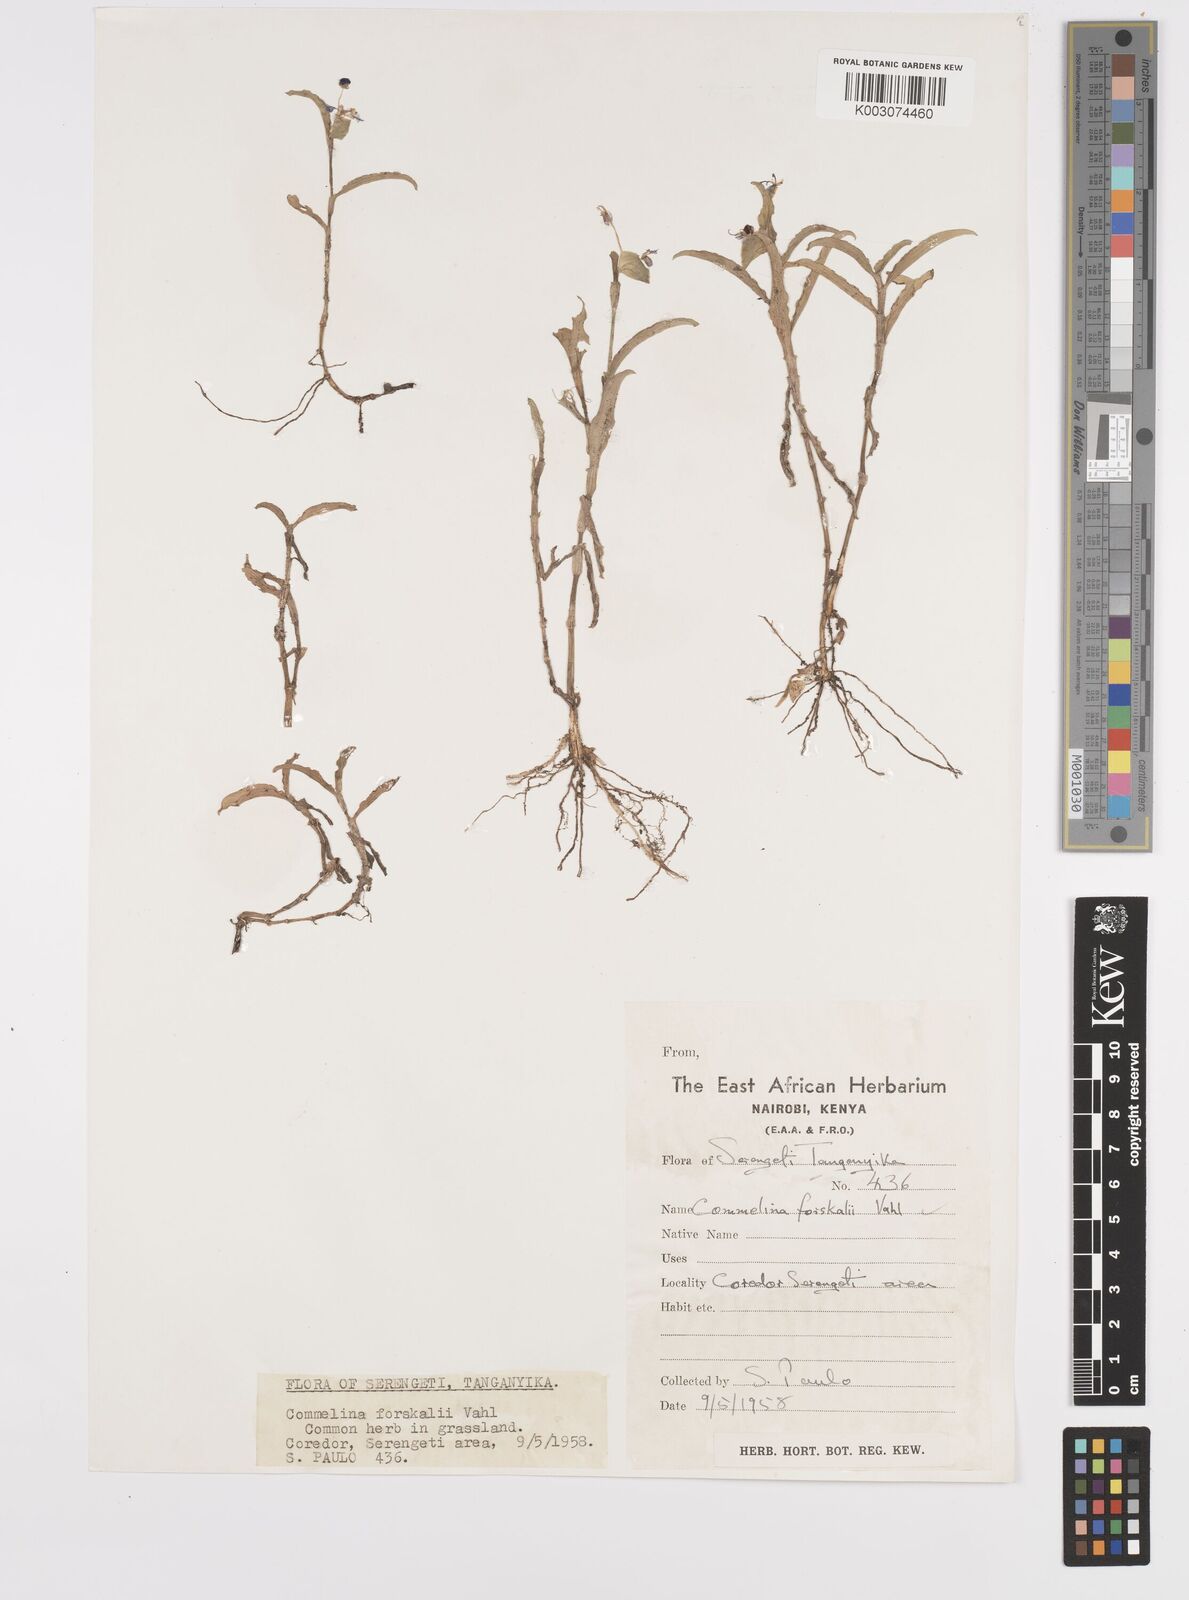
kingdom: Plantae
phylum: Tracheophyta
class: Liliopsida
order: Commelinales
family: Commelinaceae
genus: Commelina
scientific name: Commelina
